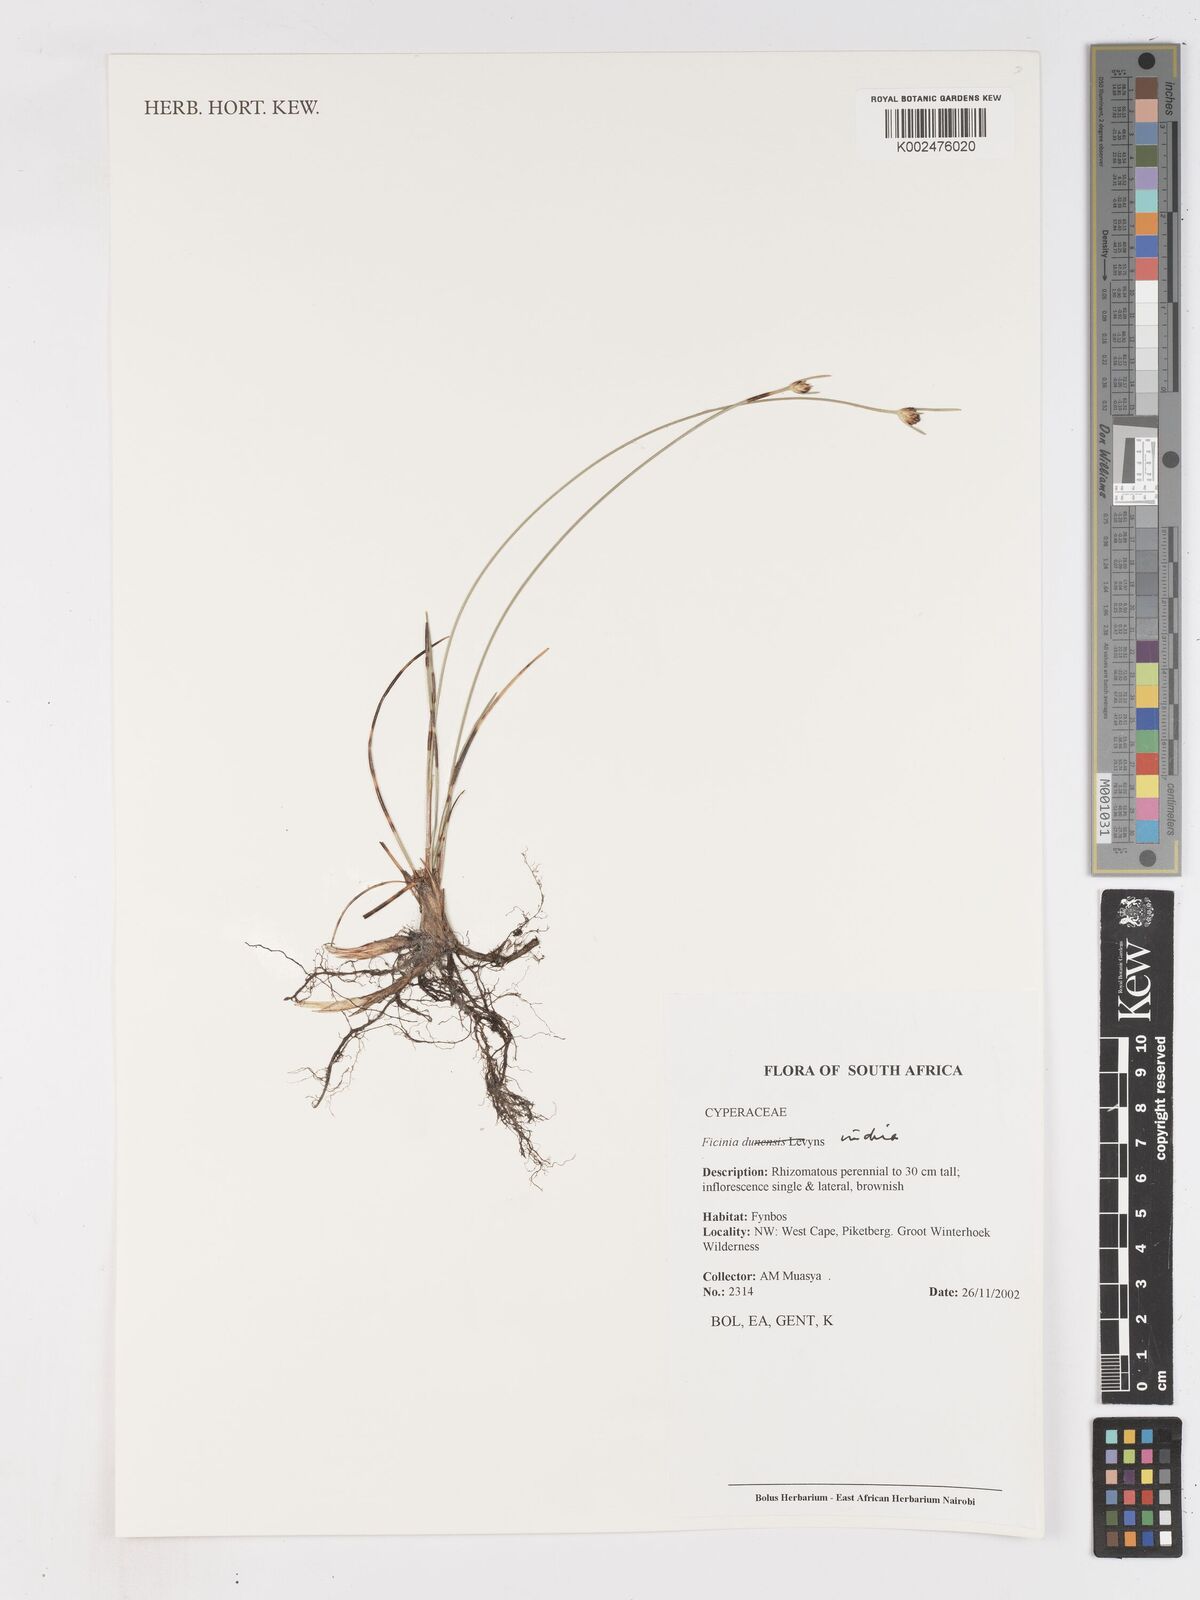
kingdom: Plantae
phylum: Tracheophyta
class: Liliopsida
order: Poales
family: Cyperaceae
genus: Ficinia
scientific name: Ficinia indica
